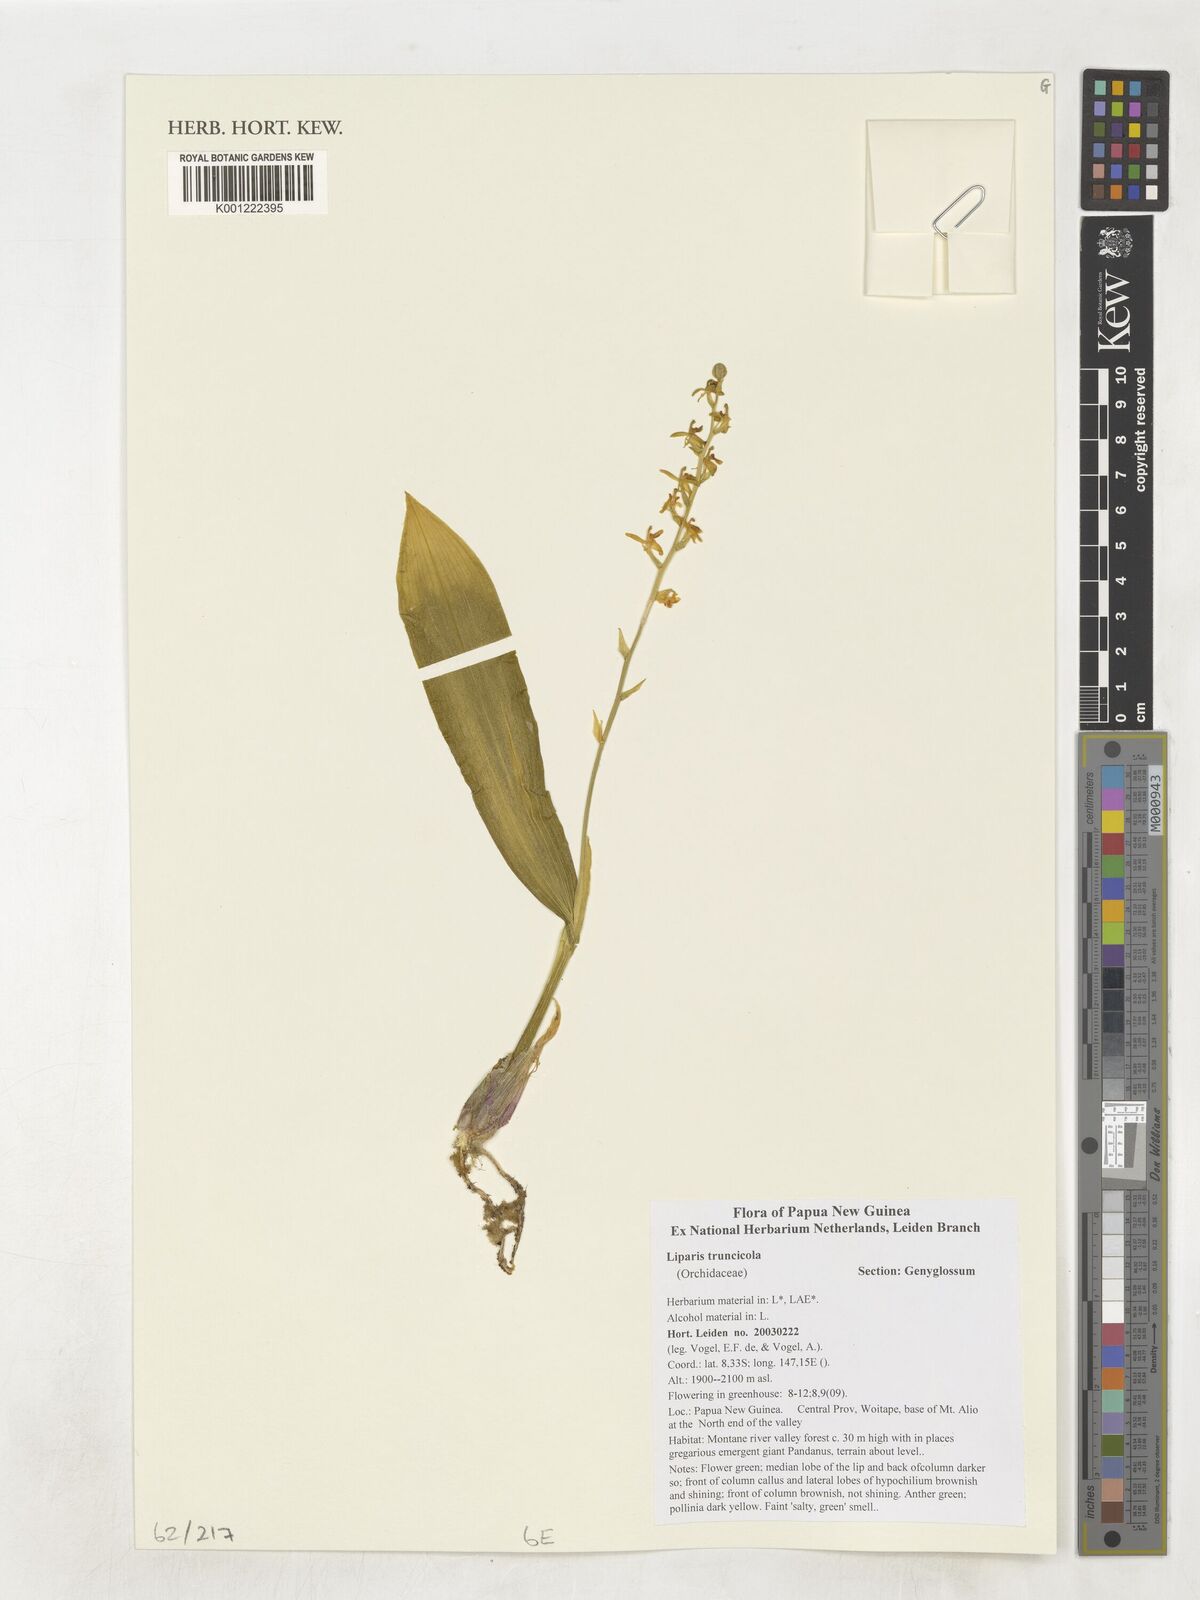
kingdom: Plantae
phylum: Tracheophyta
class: Liliopsida
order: Asparagales
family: Orchidaceae
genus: Liparis
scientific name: Liparis truncicola
